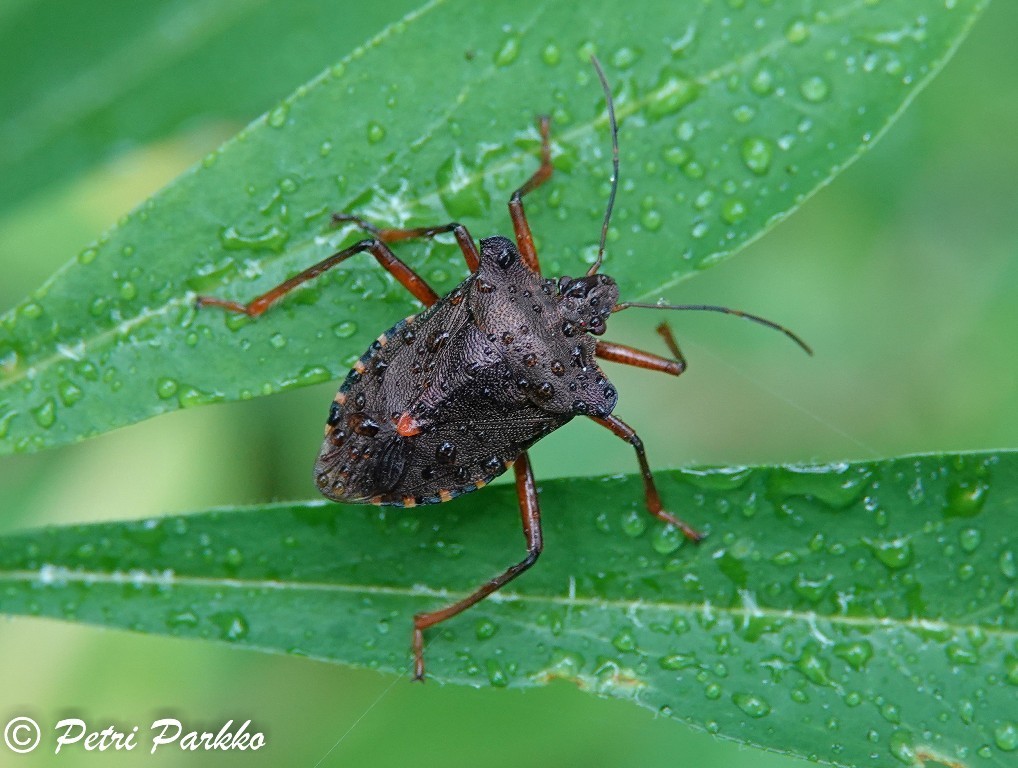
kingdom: Animalia
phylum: Arthropoda
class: Insecta
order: Hemiptera
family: Pentatomidae
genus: Pentatoma
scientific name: Pentatoma rufipes
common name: Forest bug
